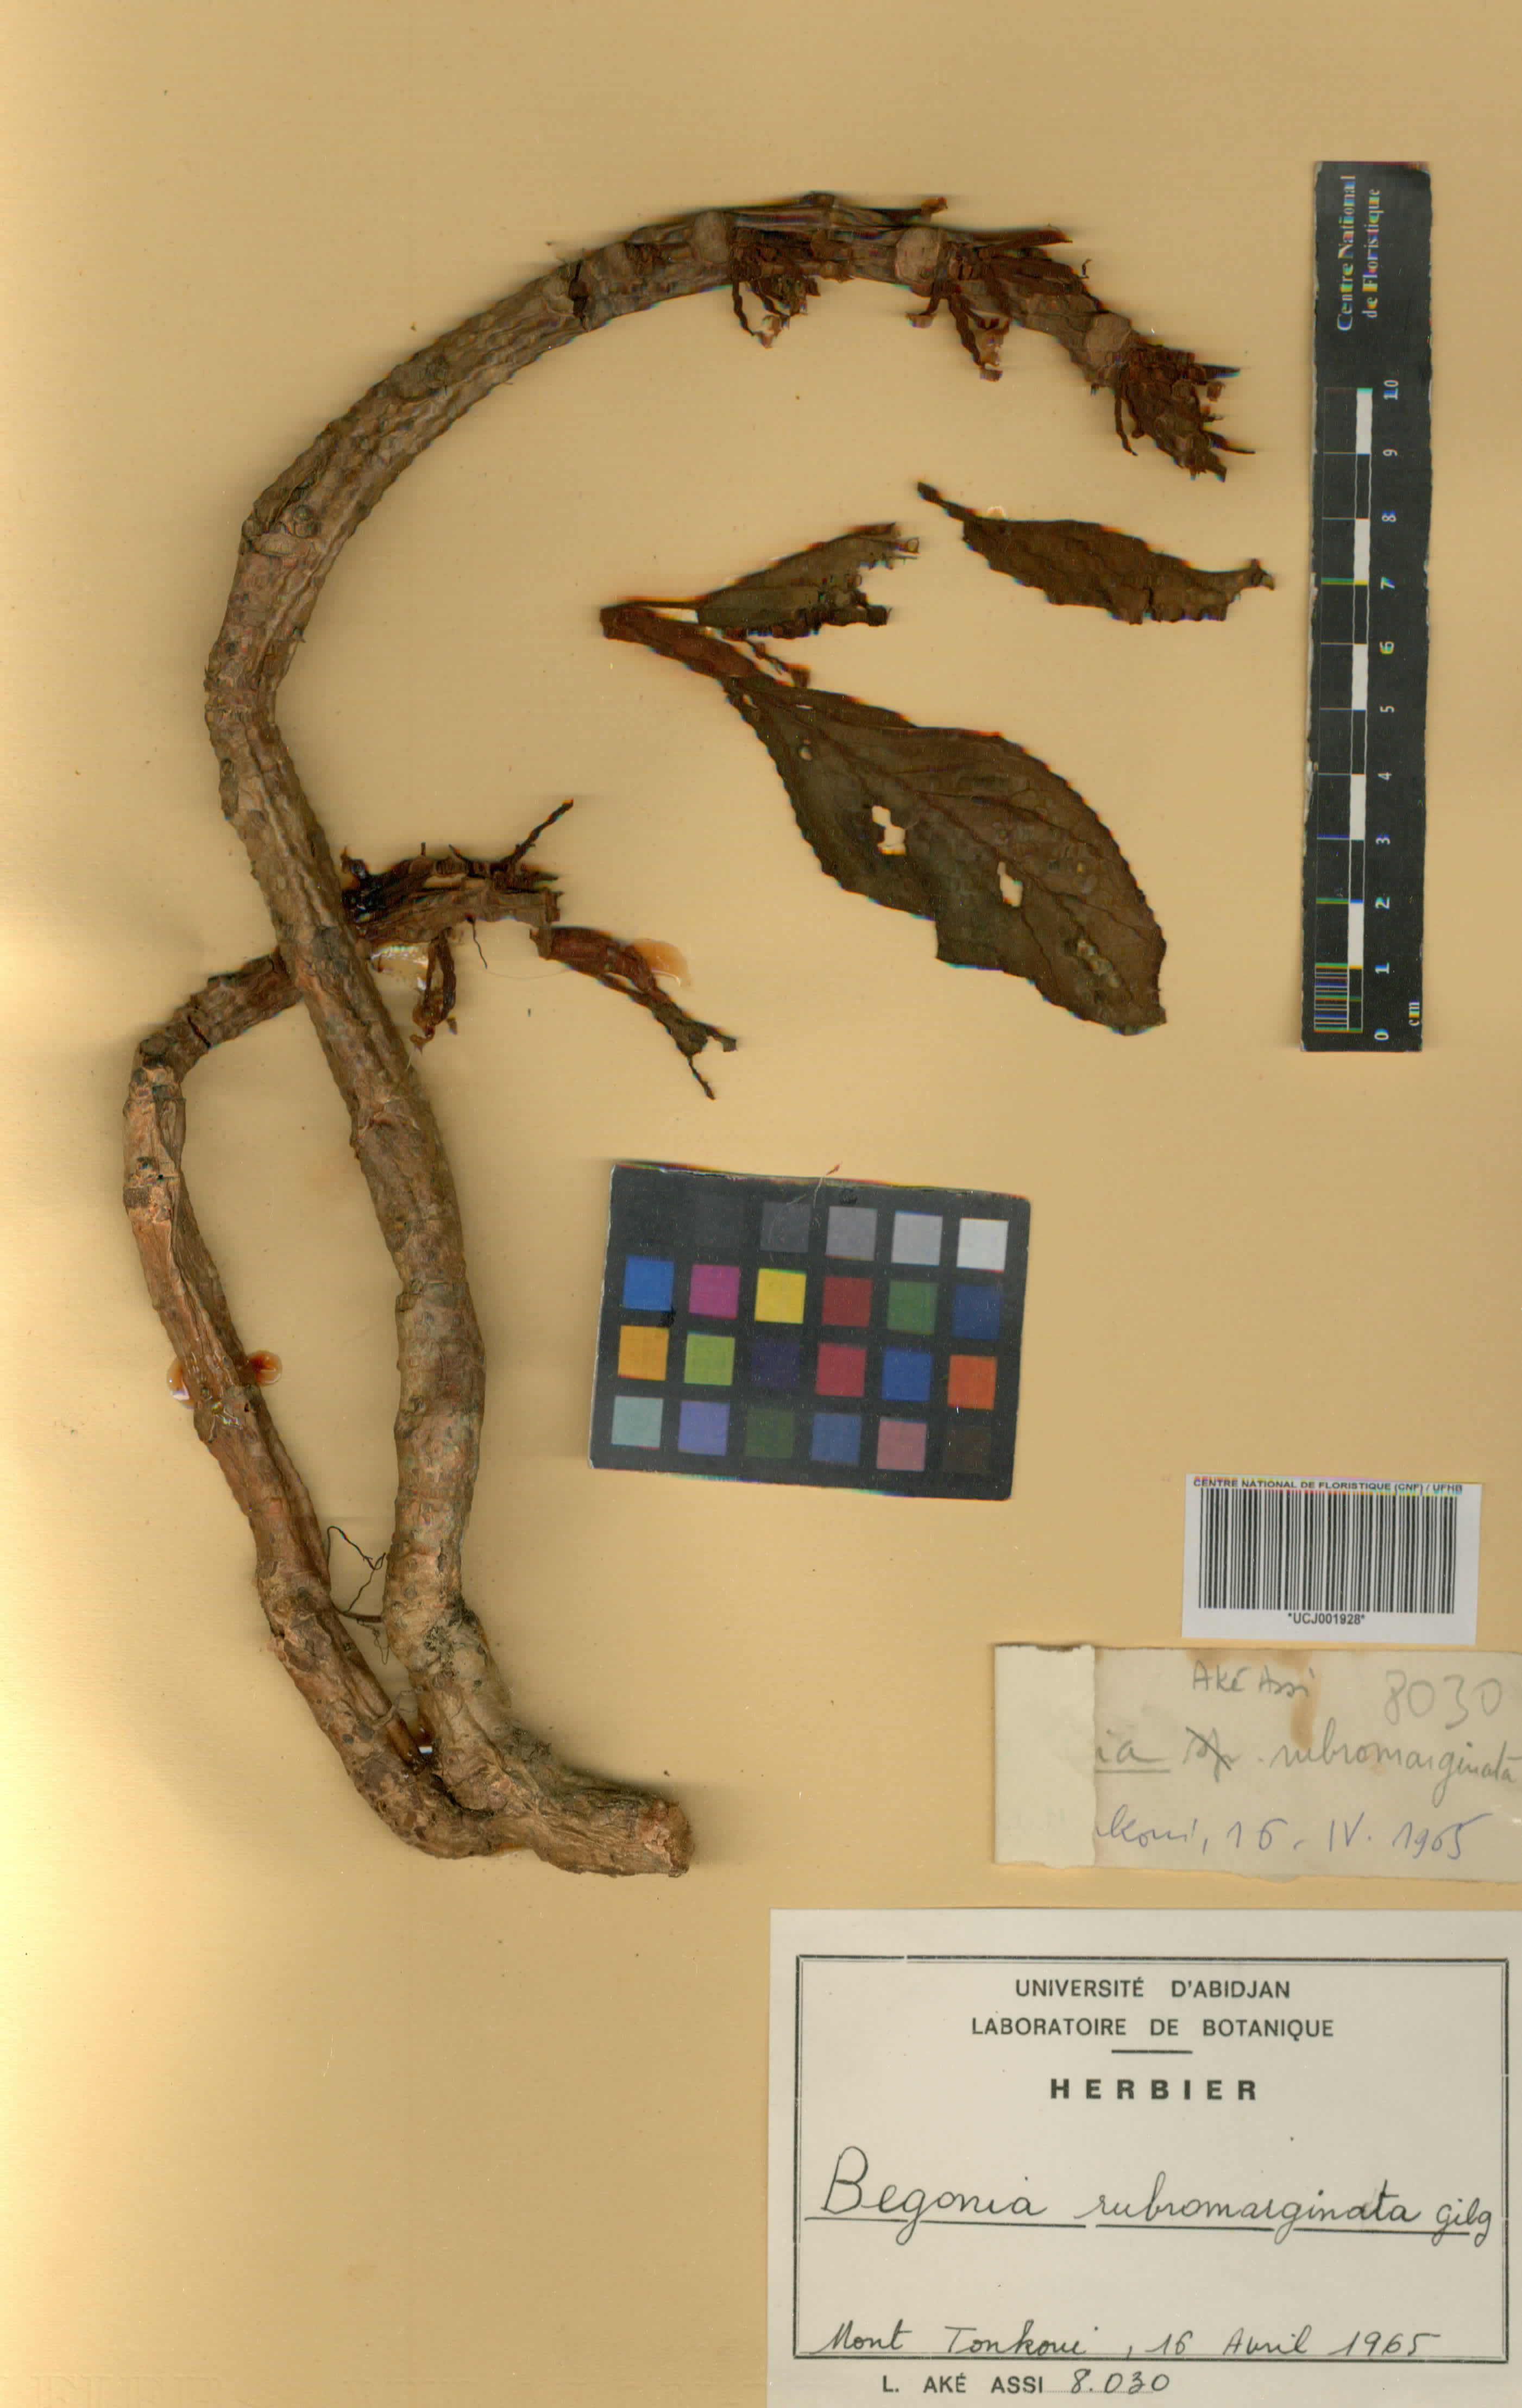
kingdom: Plantae
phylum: Tracheophyta
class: Magnoliopsida
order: Cucurbitales
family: Begoniaceae
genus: Begonia
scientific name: Begonia rubromarginata
